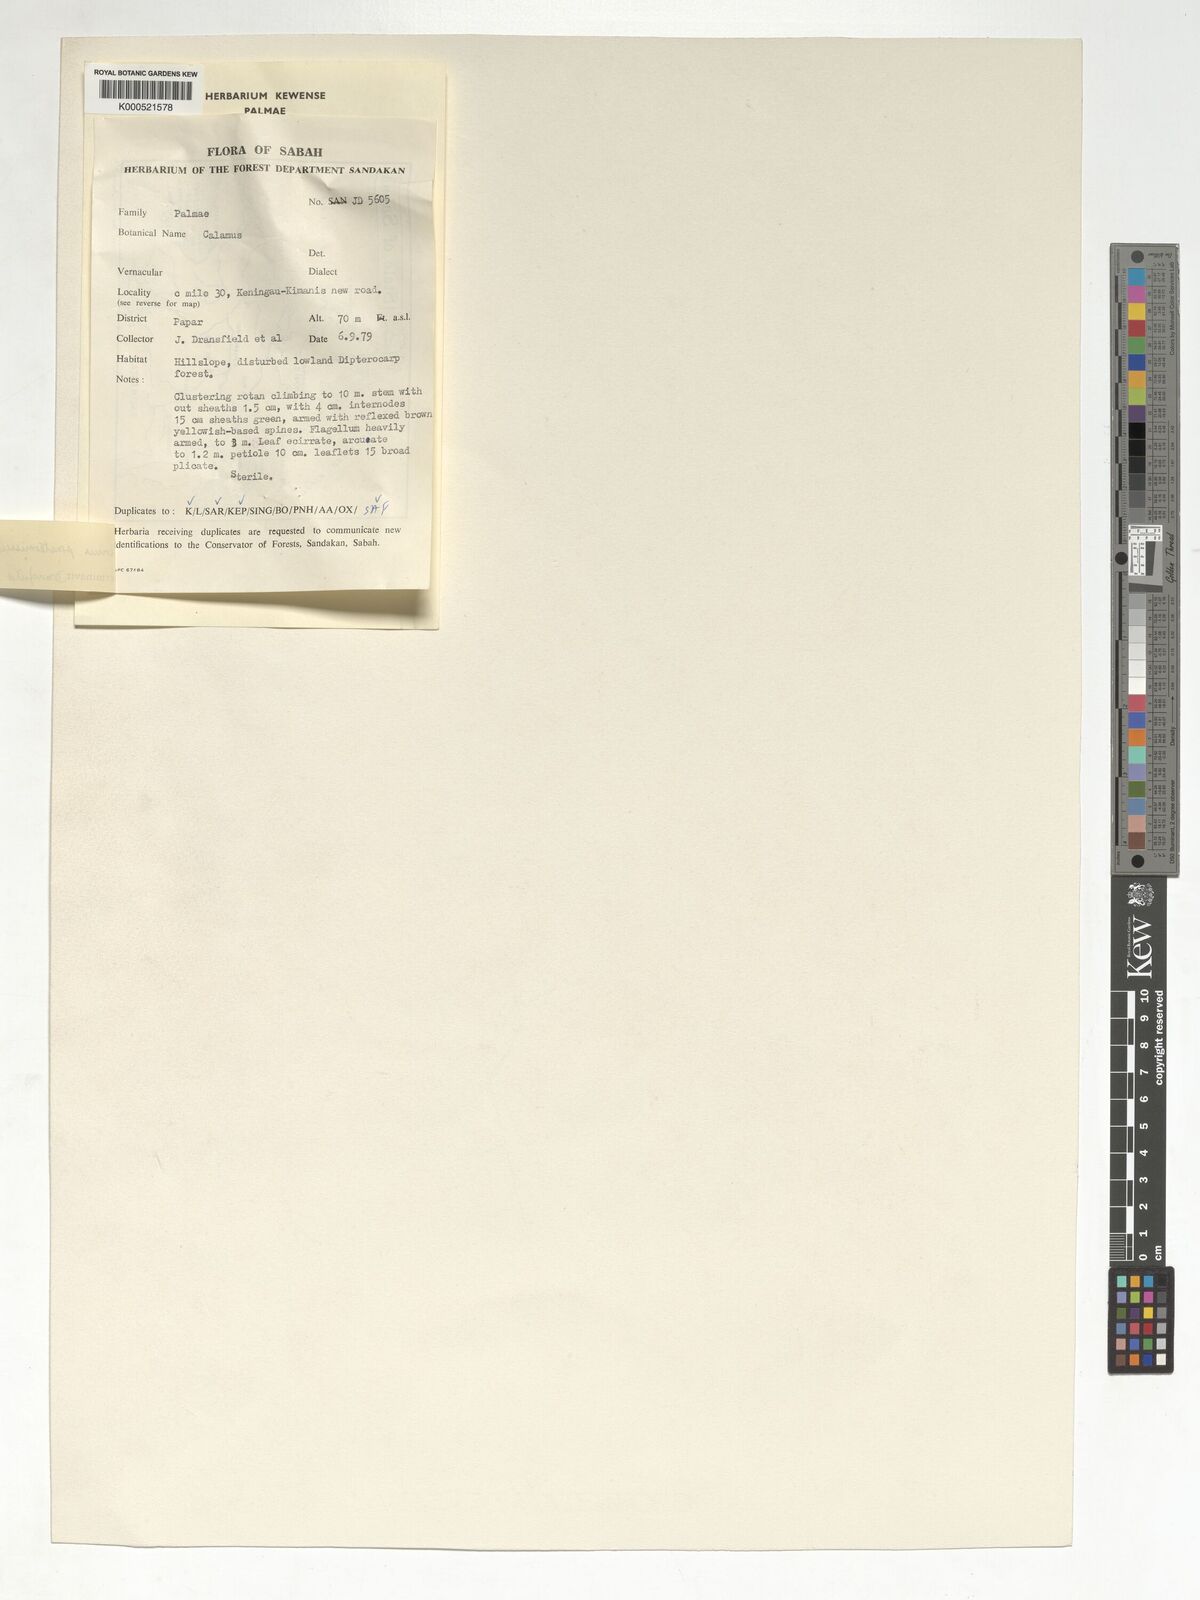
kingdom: Plantae
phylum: Tracheophyta
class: Liliopsida
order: Arecales
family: Arecaceae
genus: Calamus
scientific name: Calamus praetermissus
